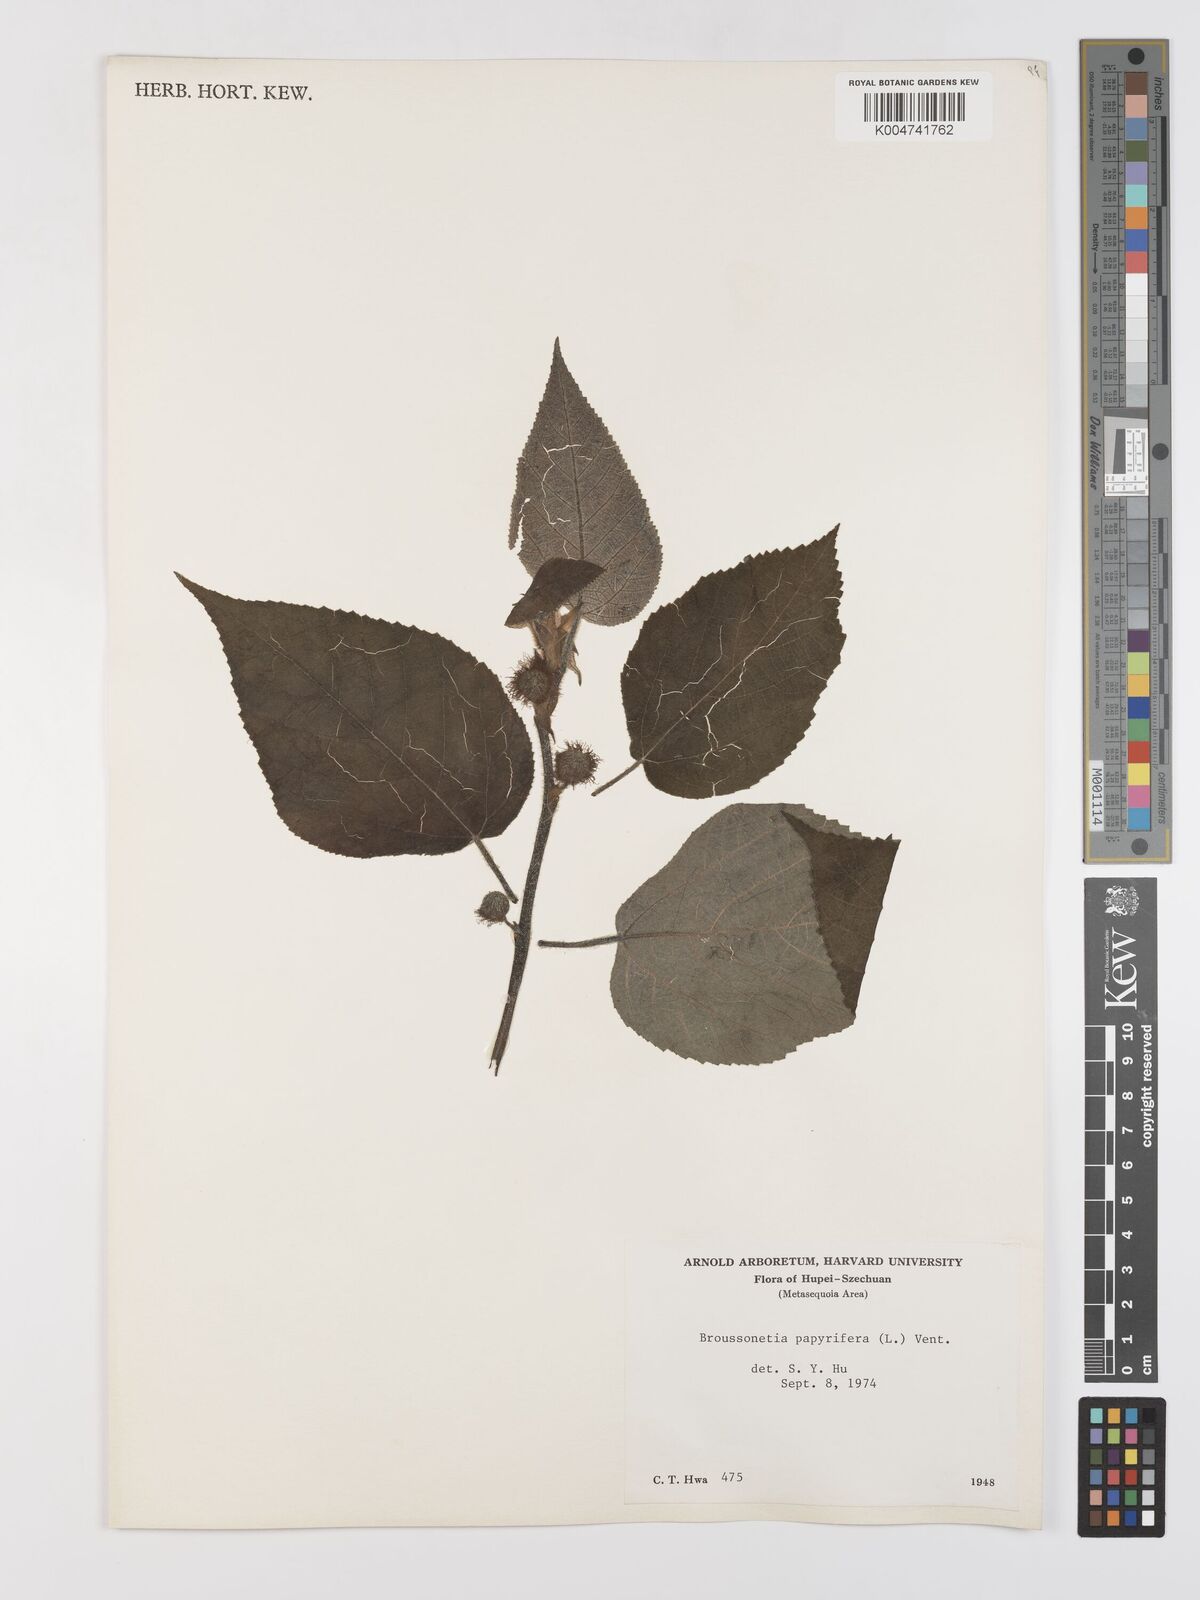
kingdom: Plantae
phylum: Tracheophyta
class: Magnoliopsida
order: Rosales
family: Moraceae
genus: Broussonetia
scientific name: Broussonetia papyrifera
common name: Paper mulberry
